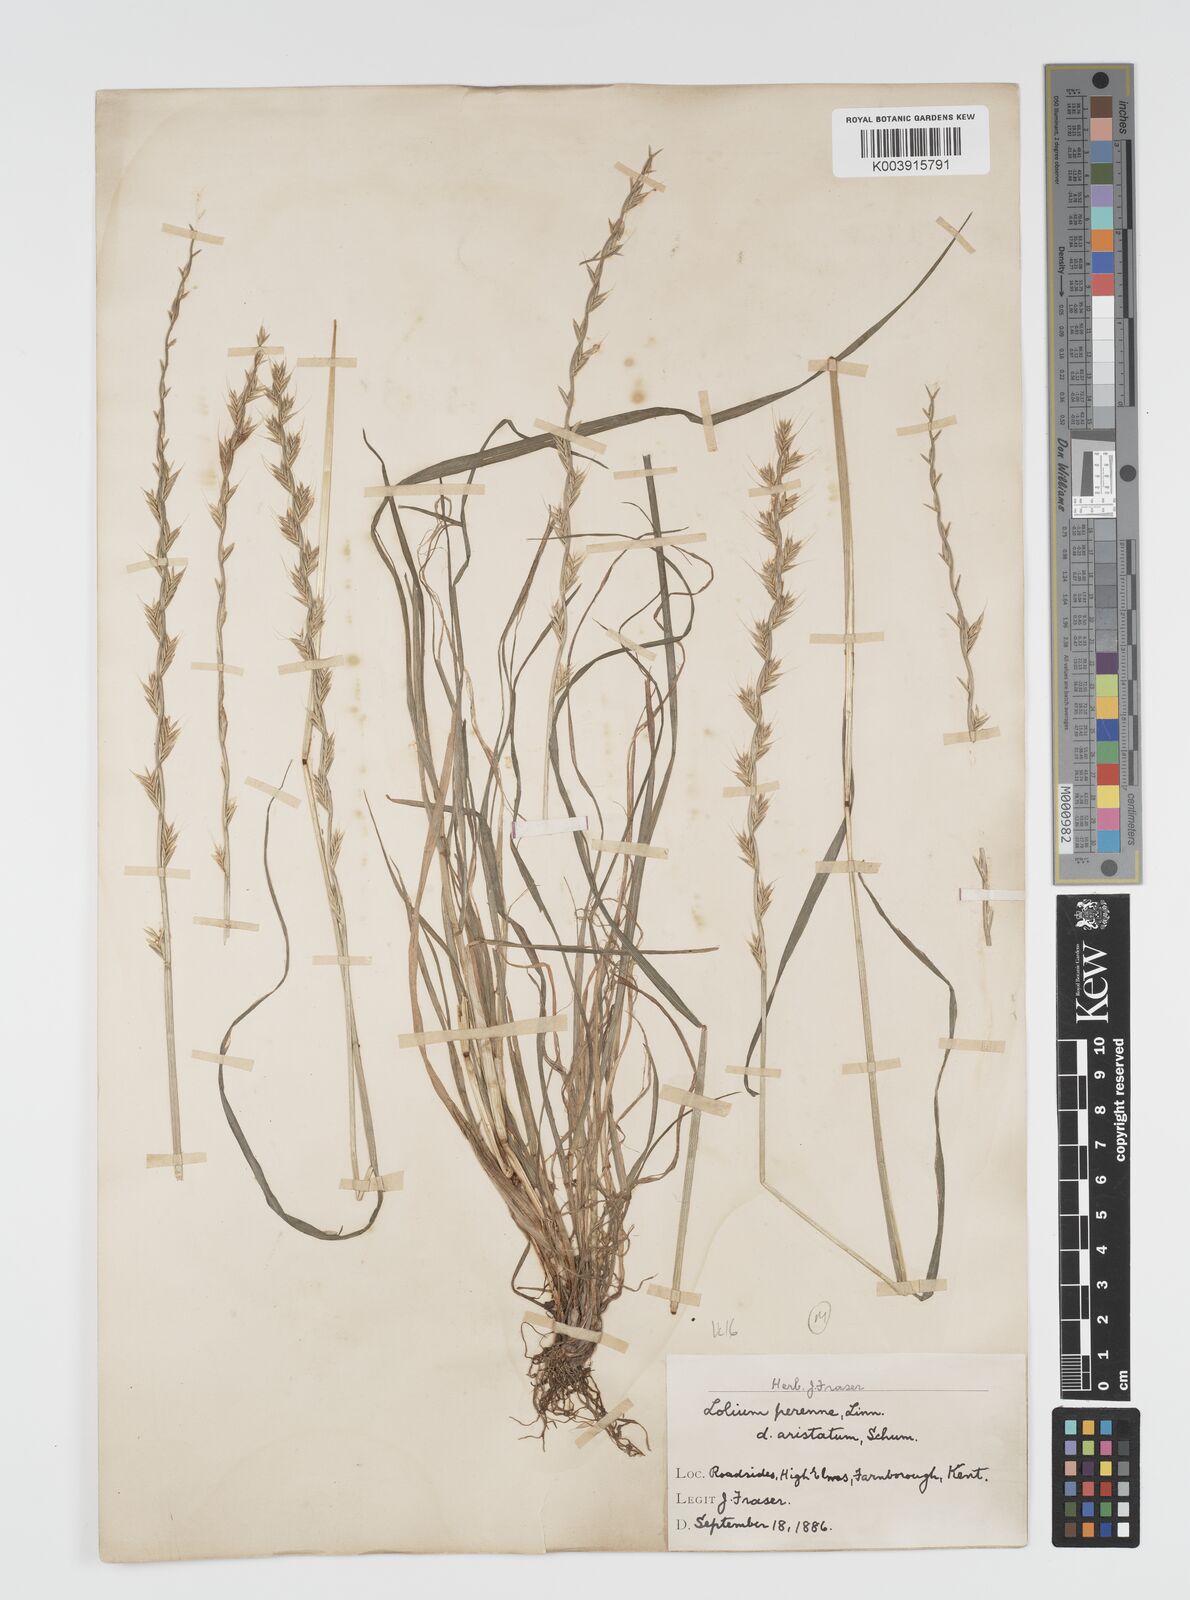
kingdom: Plantae
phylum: Tracheophyta
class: Liliopsida
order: Poales
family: Poaceae
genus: Lolium
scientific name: Lolium multiflorum
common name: Annual ryegrass
